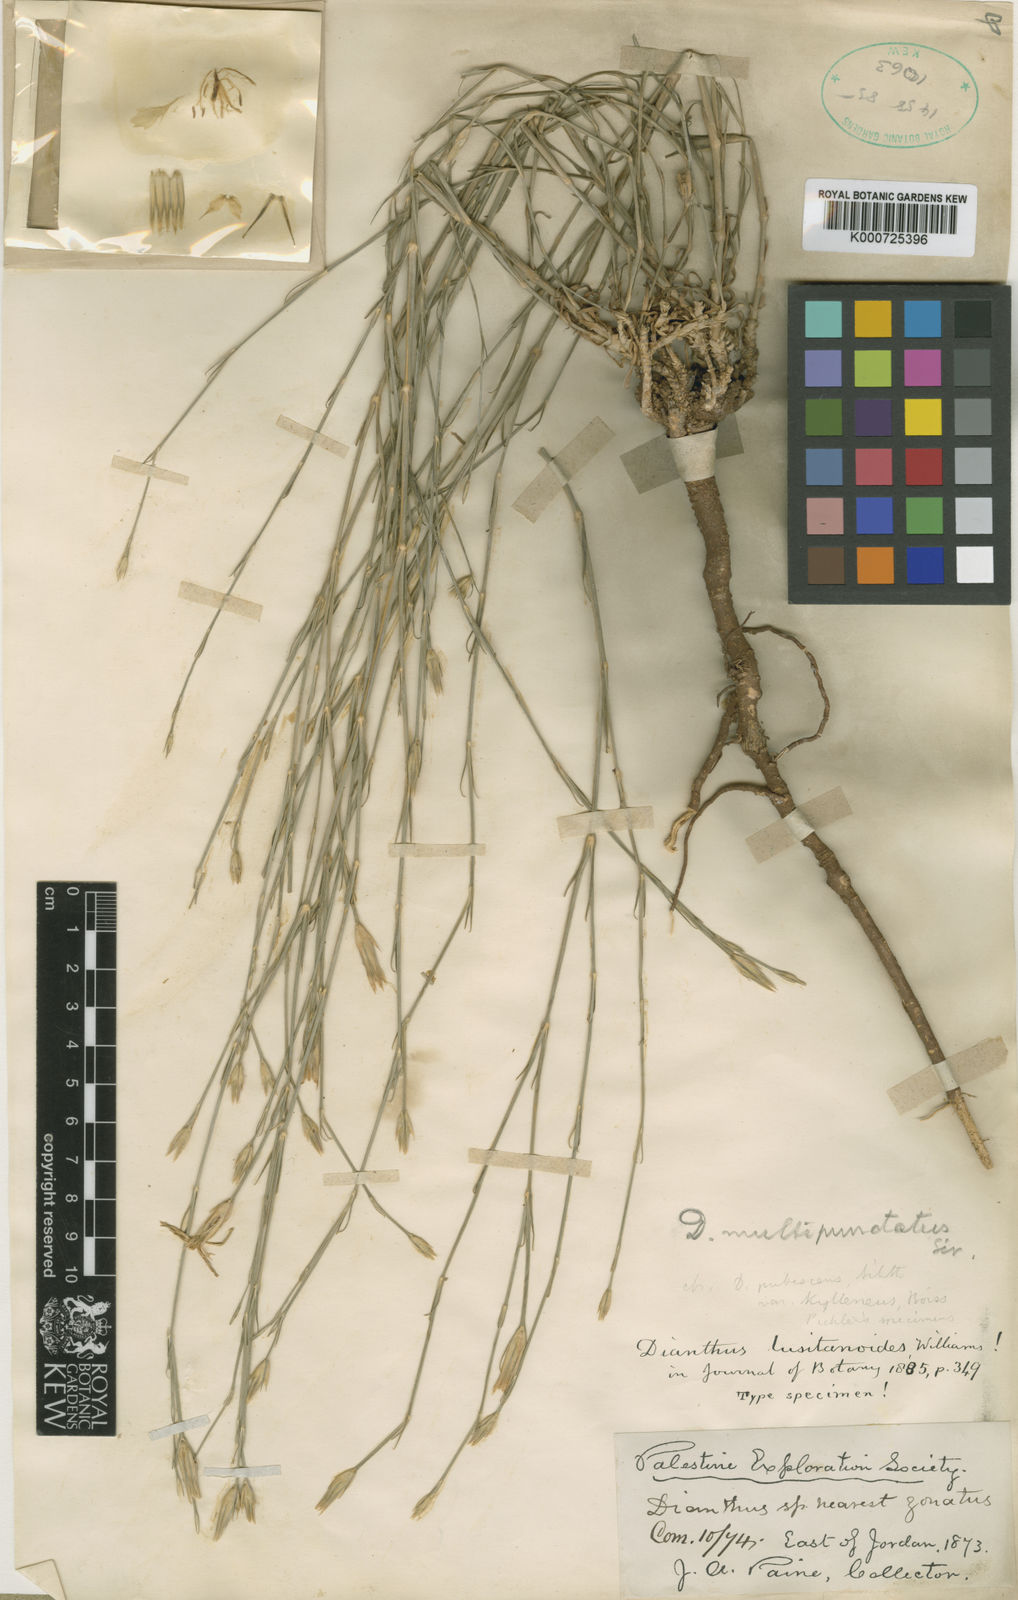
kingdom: Plantae
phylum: Tracheophyta
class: Magnoliopsida
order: Caryophyllales
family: Caryophyllaceae
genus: Dianthus
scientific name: Dianthus strictus
